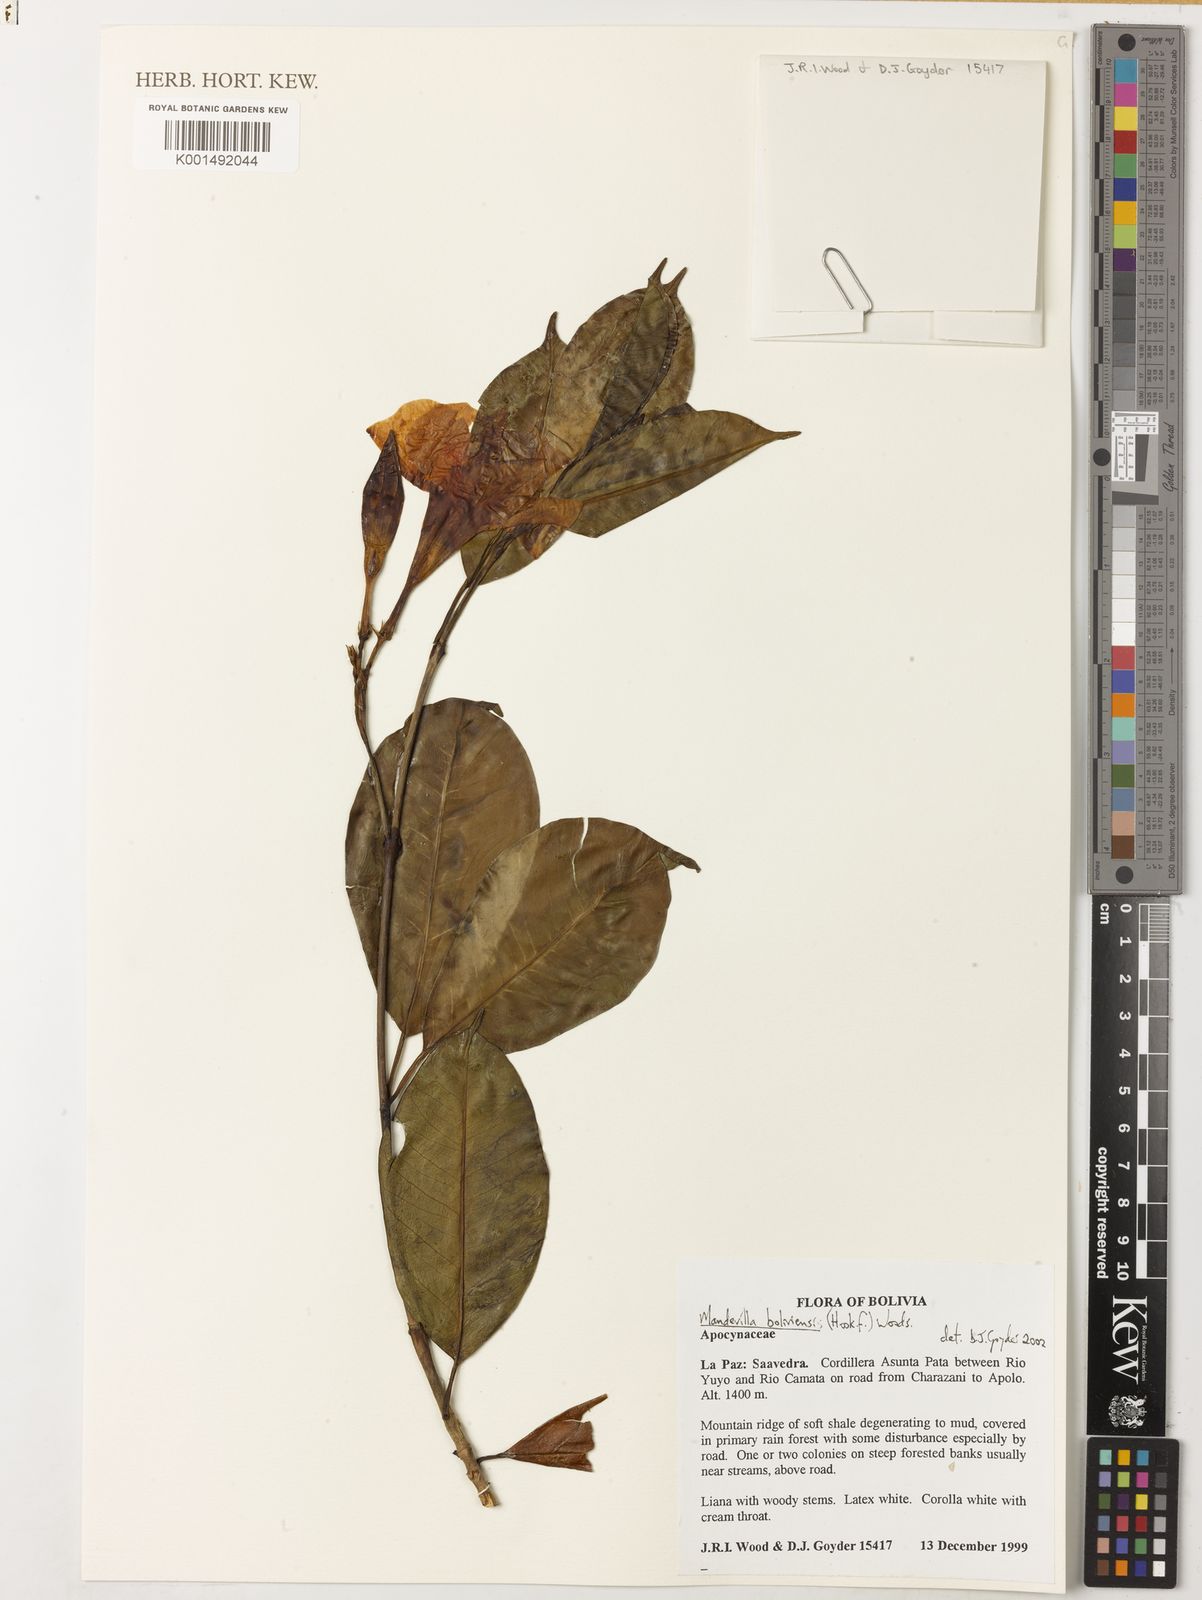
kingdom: Plantae
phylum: Tracheophyta
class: Magnoliopsida
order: Gentianales
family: Apocynaceae
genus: Mandevilla
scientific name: Mandevilla boliviensis
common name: White dipladenia
